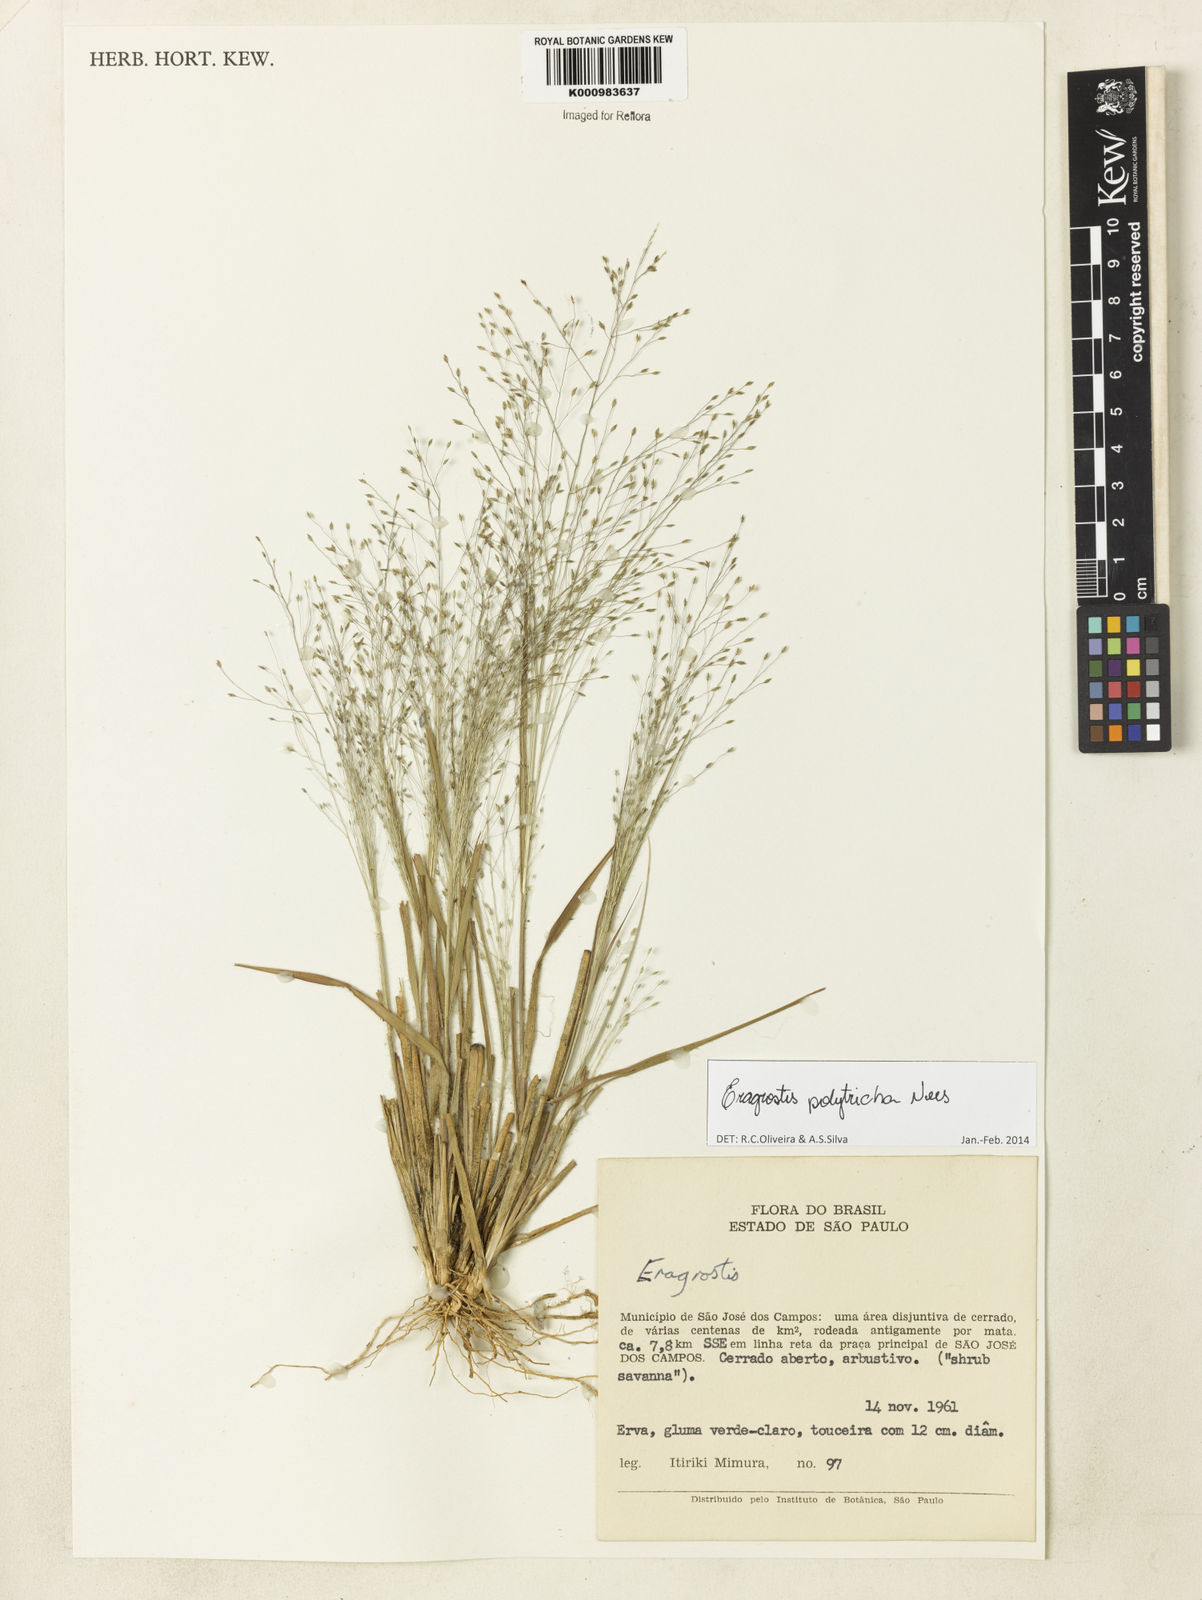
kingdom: Plantae
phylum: Tracheophyta
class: Liliopsida
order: Poales
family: Poaceae
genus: Eragrostis
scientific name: Eragrostis polytricha
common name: Hairy-sheath love grass
